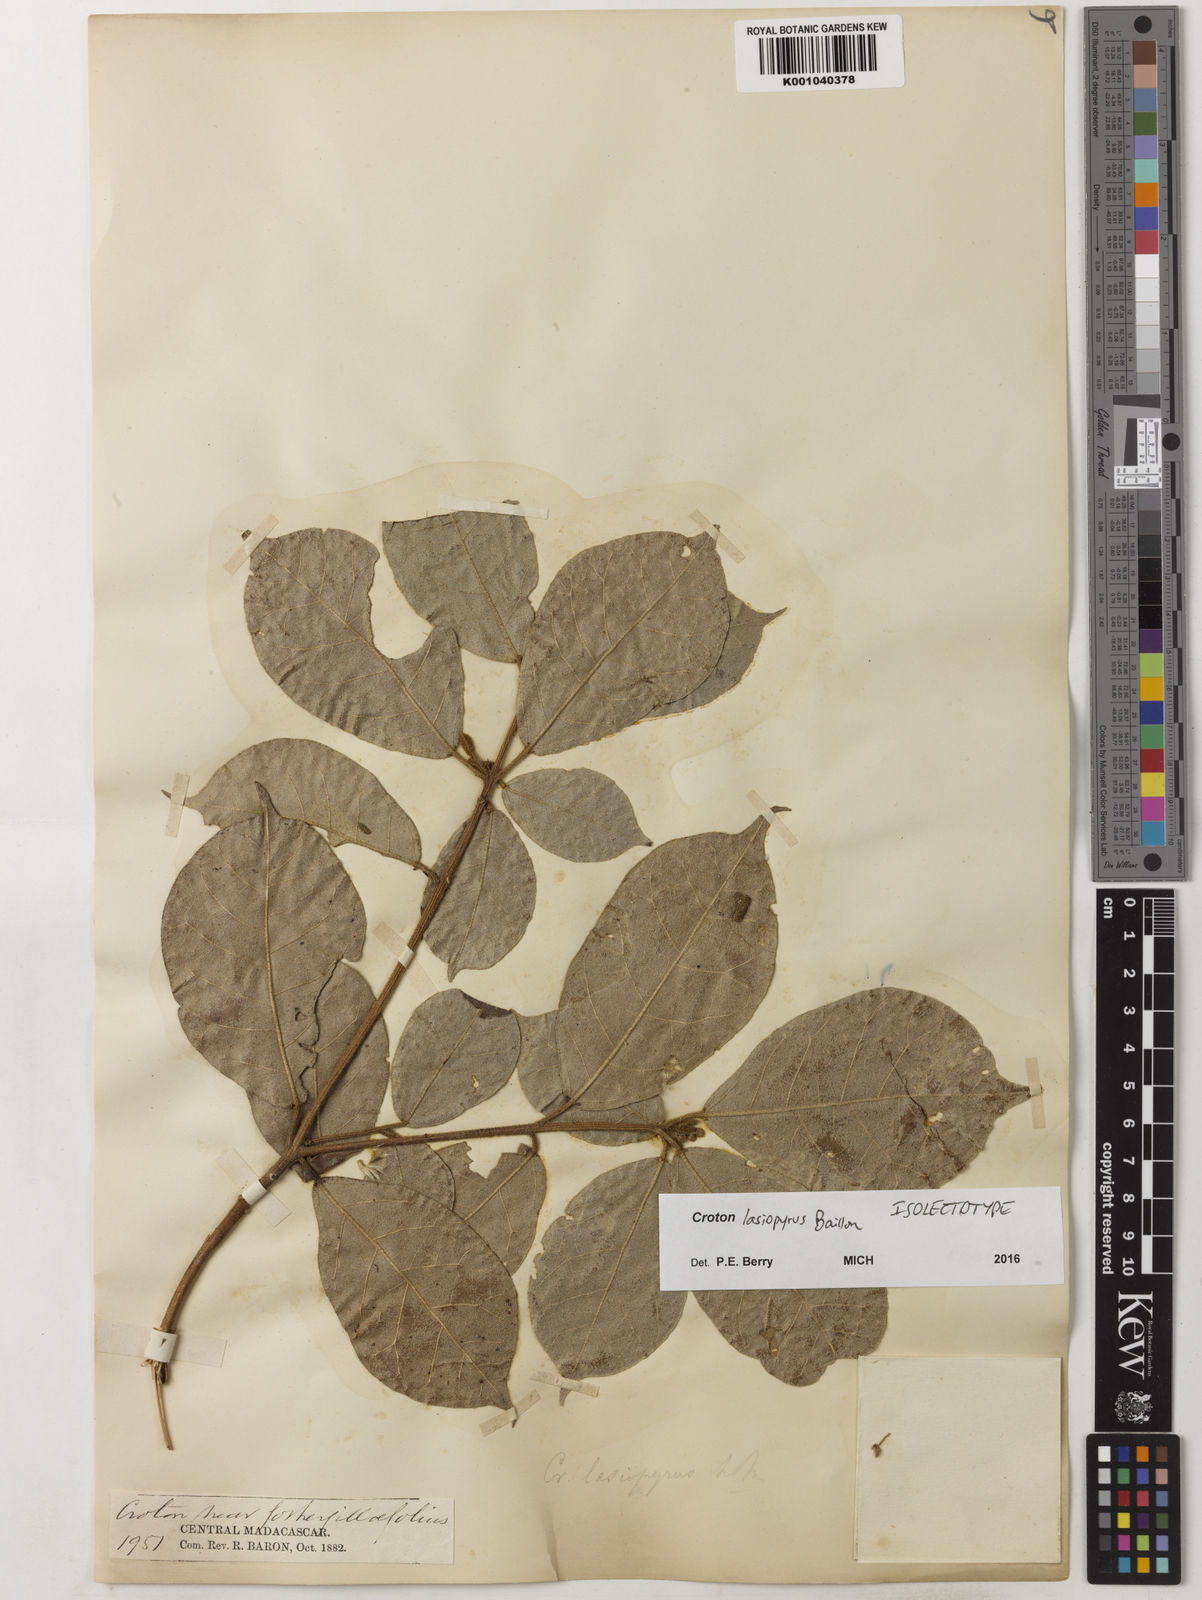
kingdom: Plantae
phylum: Tracheophyta
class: Magnoliopsida
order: Malpighiales
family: Euphorbiaceae
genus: Croton
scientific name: Croton lasiopyrus
